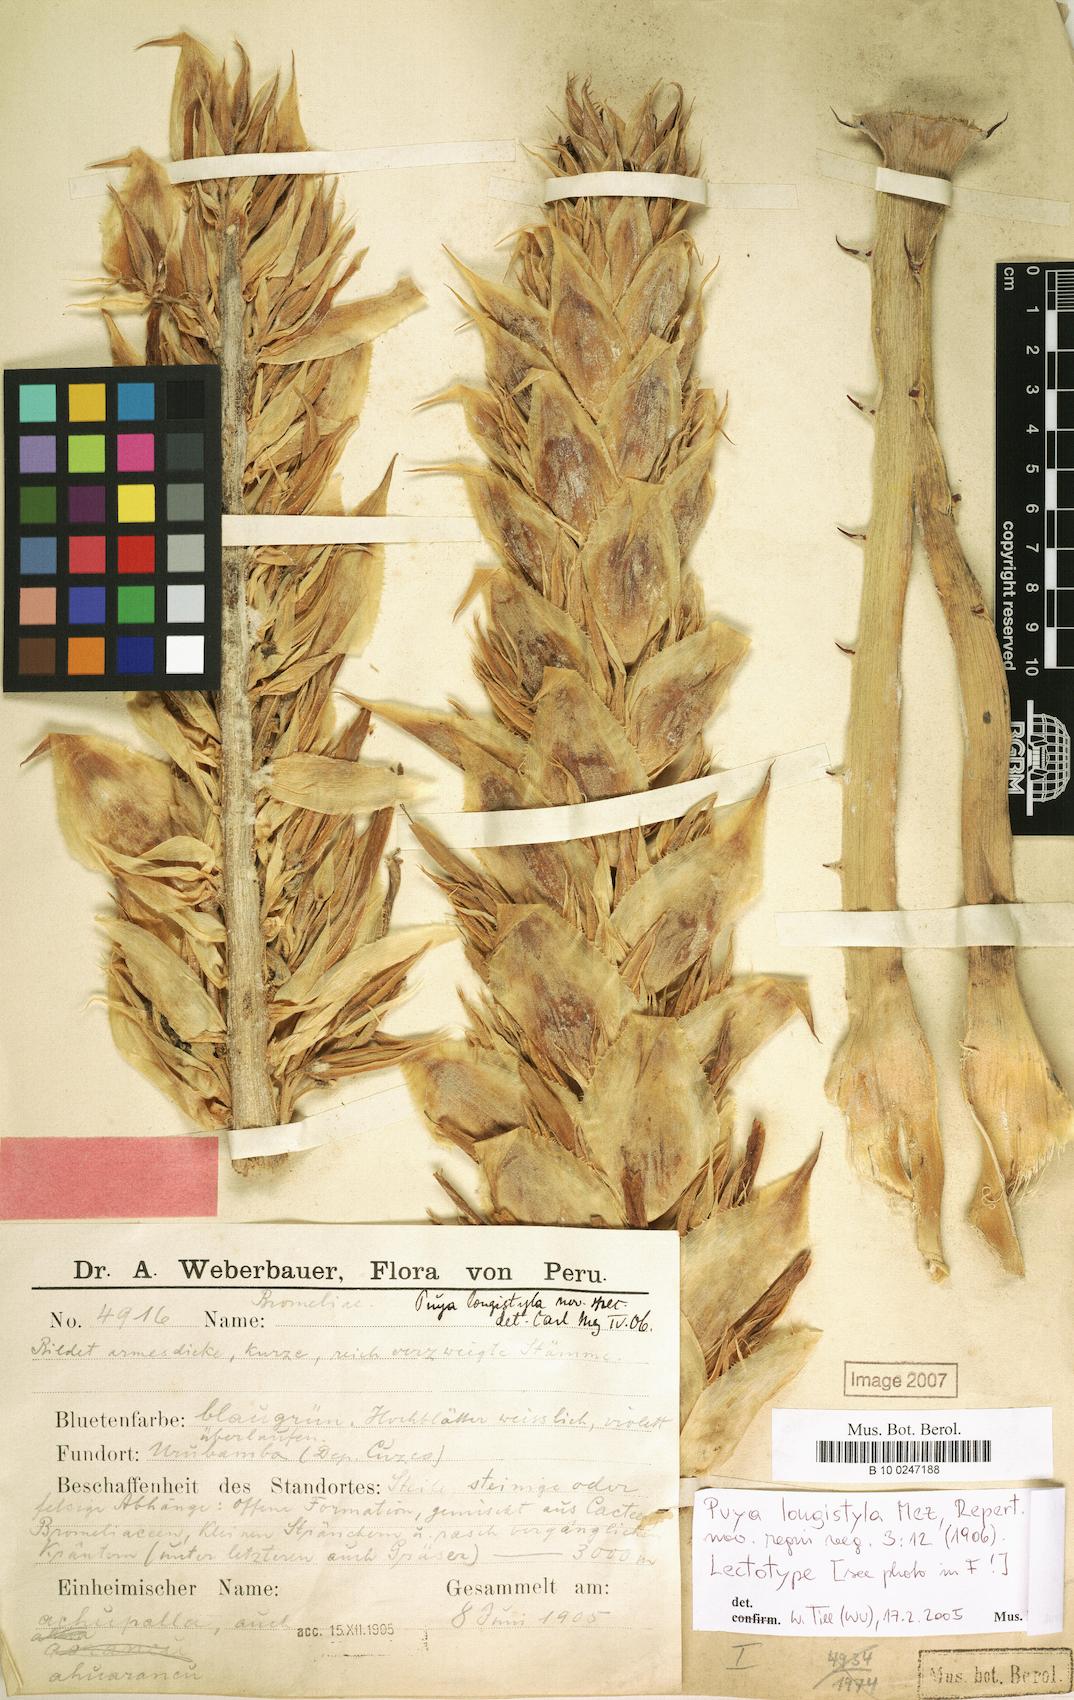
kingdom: Plantae
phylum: Tracheophyta
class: Liliopsida
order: Poales
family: Bromeliaceae
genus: Puya
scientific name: Puya longistyla
